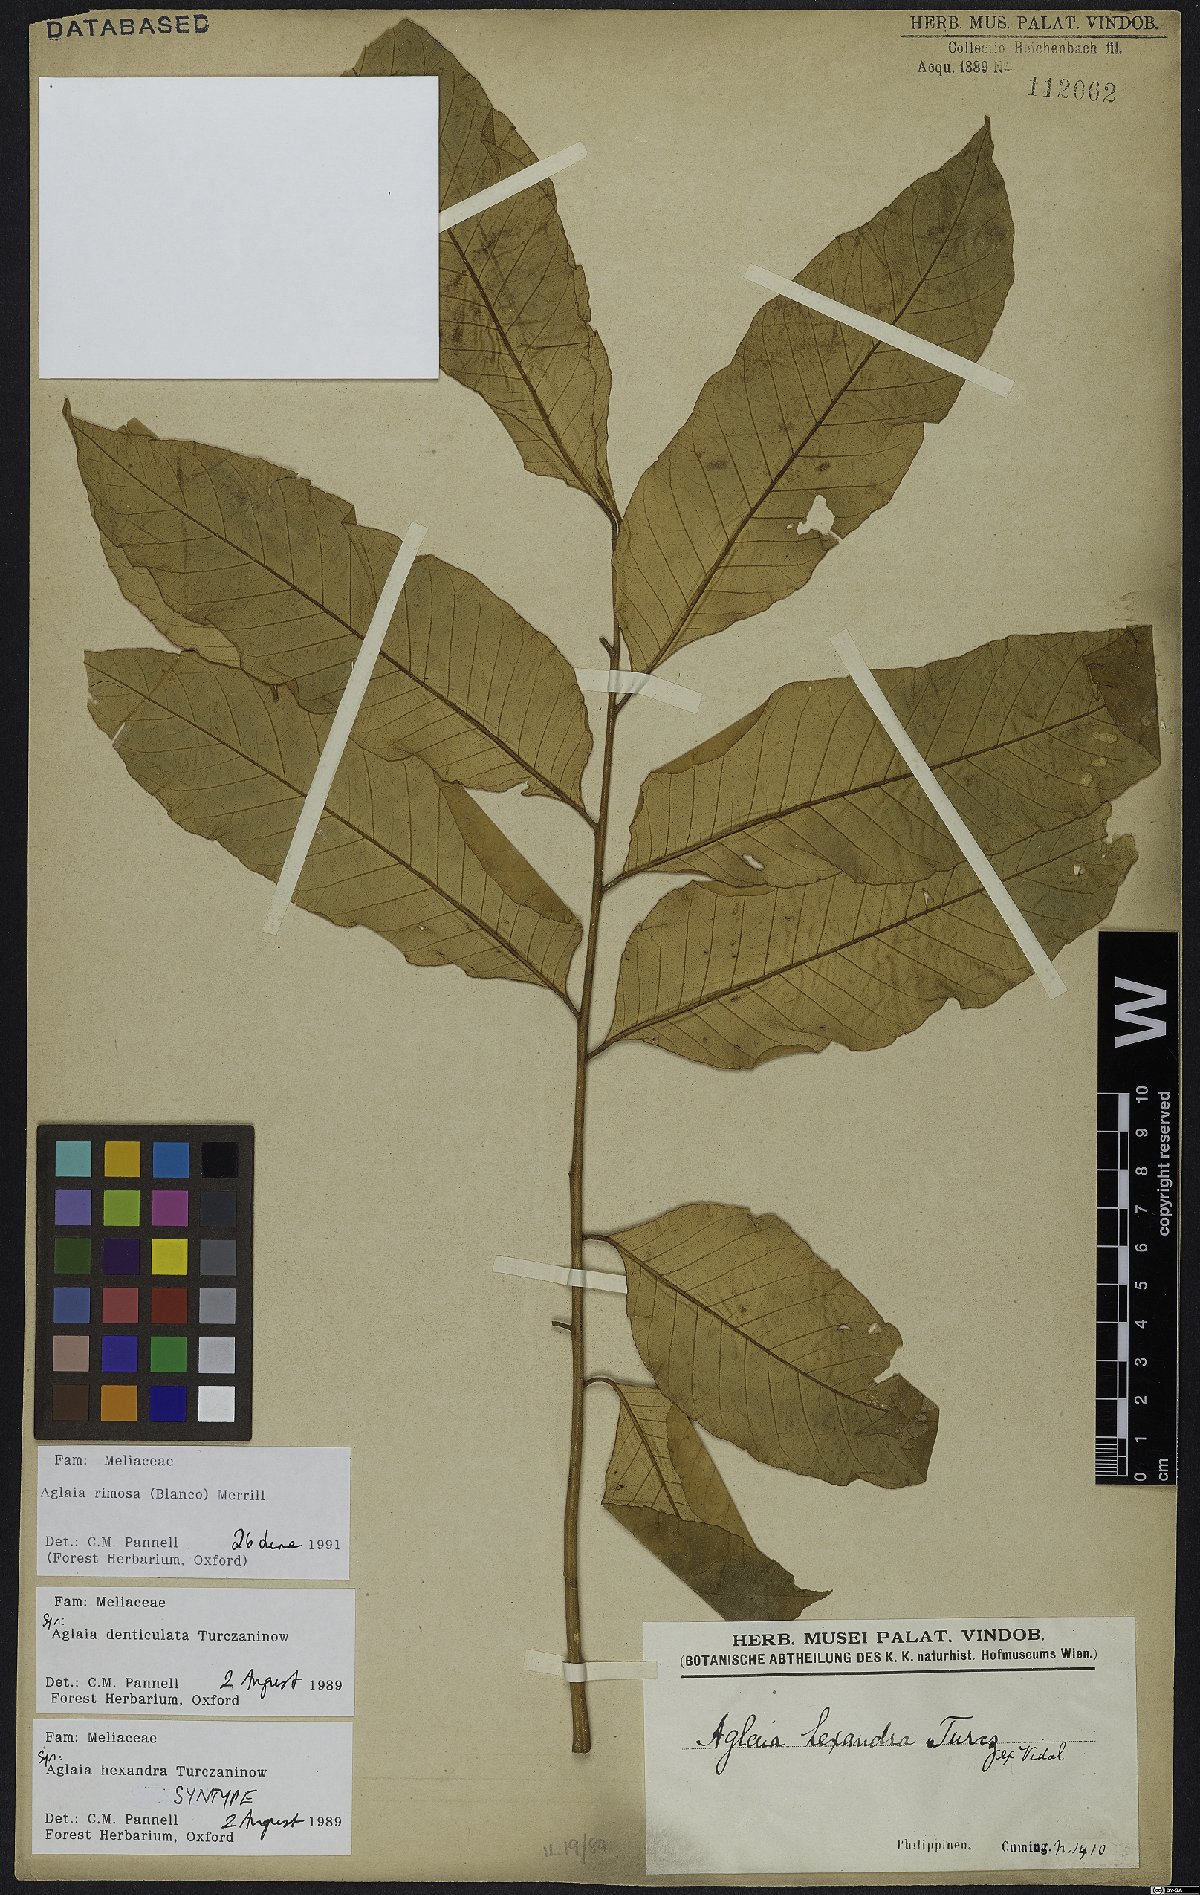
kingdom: Plantae
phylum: Tracheophyta
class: Magnoliopsida
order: Sapindales
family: Meliaceae
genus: Aglaia
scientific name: Aglaia rimosa
